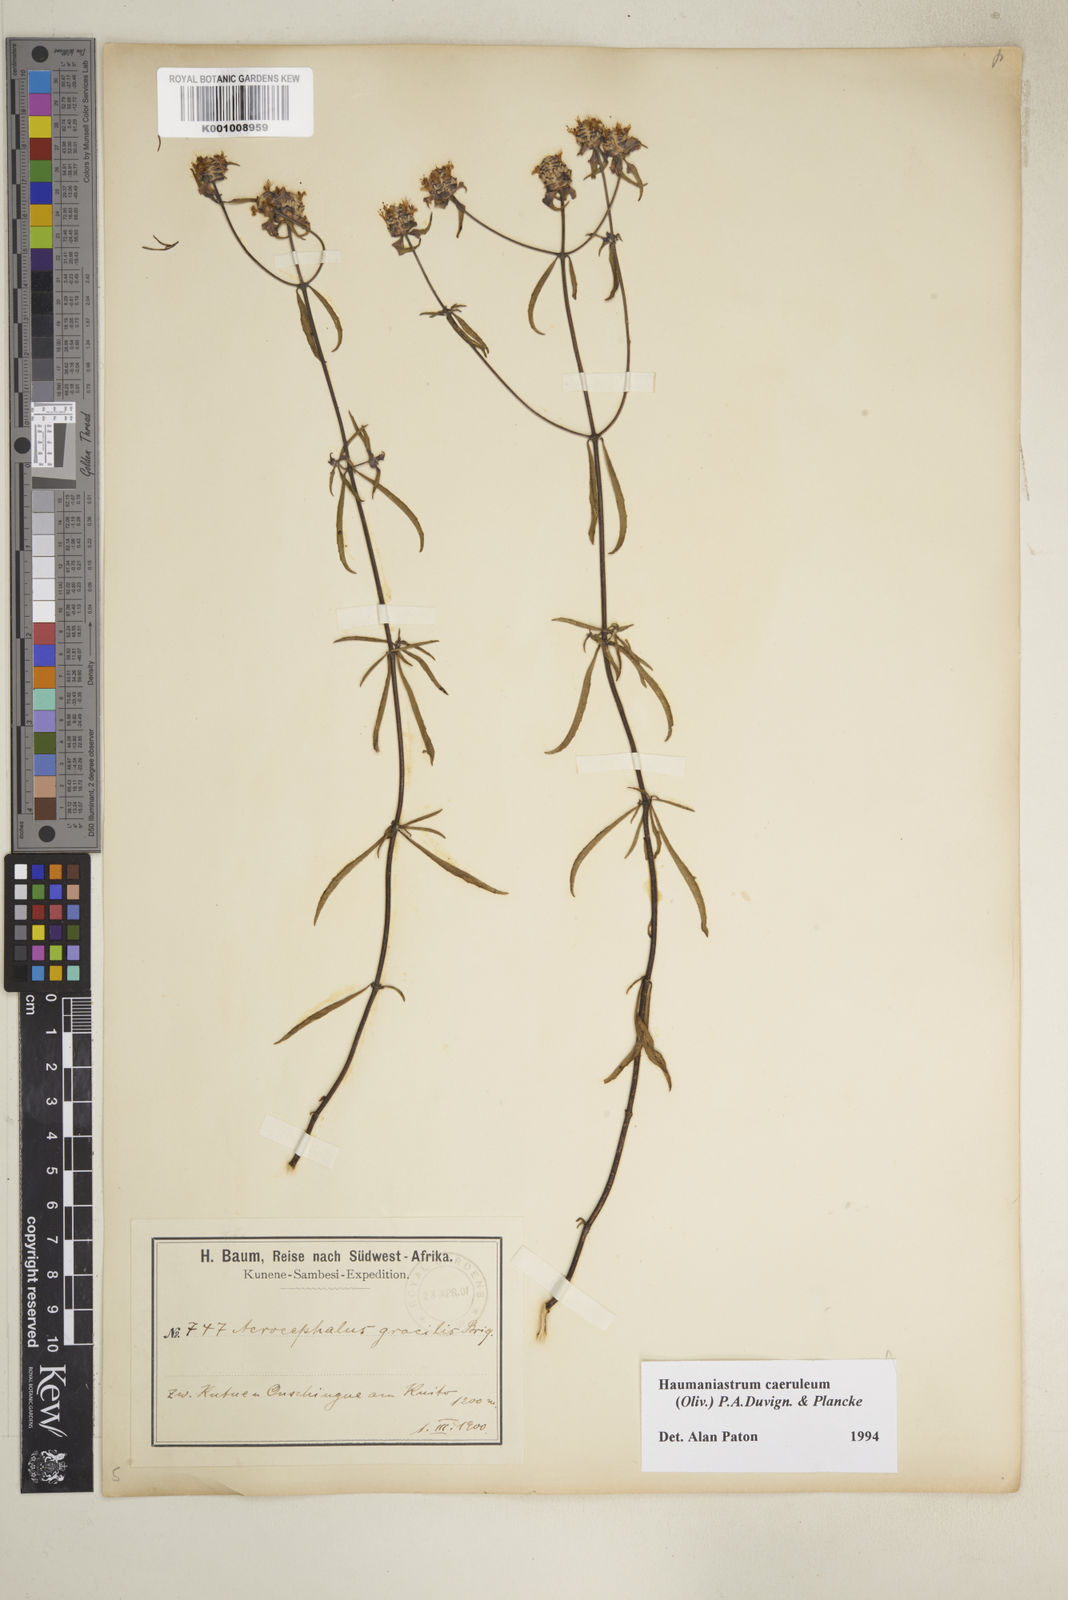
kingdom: Plantae
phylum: Tracheophyta
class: Magnoliopsida
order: Lamiales
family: Lamiaceae
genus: Haumaniastrum
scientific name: Haumaniastrum caeruleum
